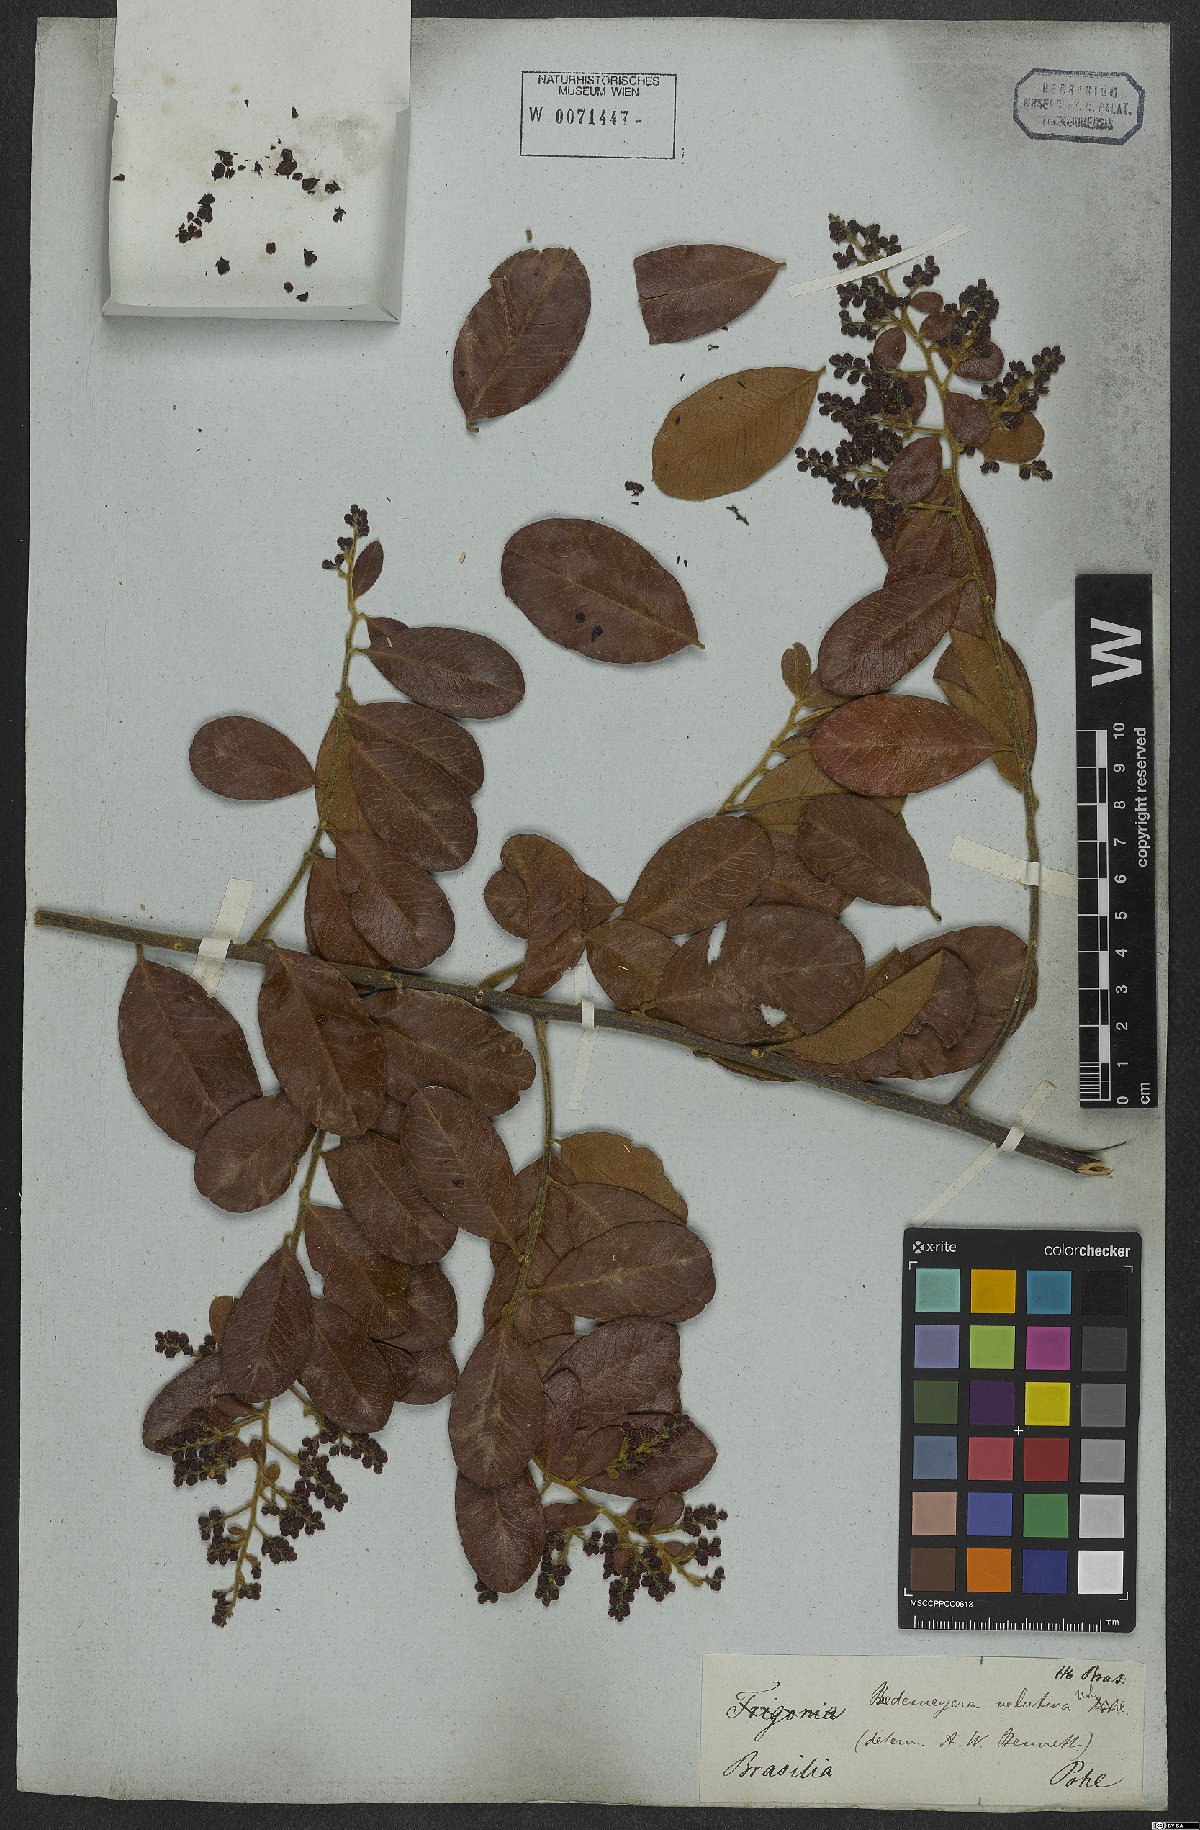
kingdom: Plantae
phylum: Tracheophyta
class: Magnoliopsida
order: Fabales
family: Polygalaceae
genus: Bredemeyera
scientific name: Bredemeyera laurifolia
